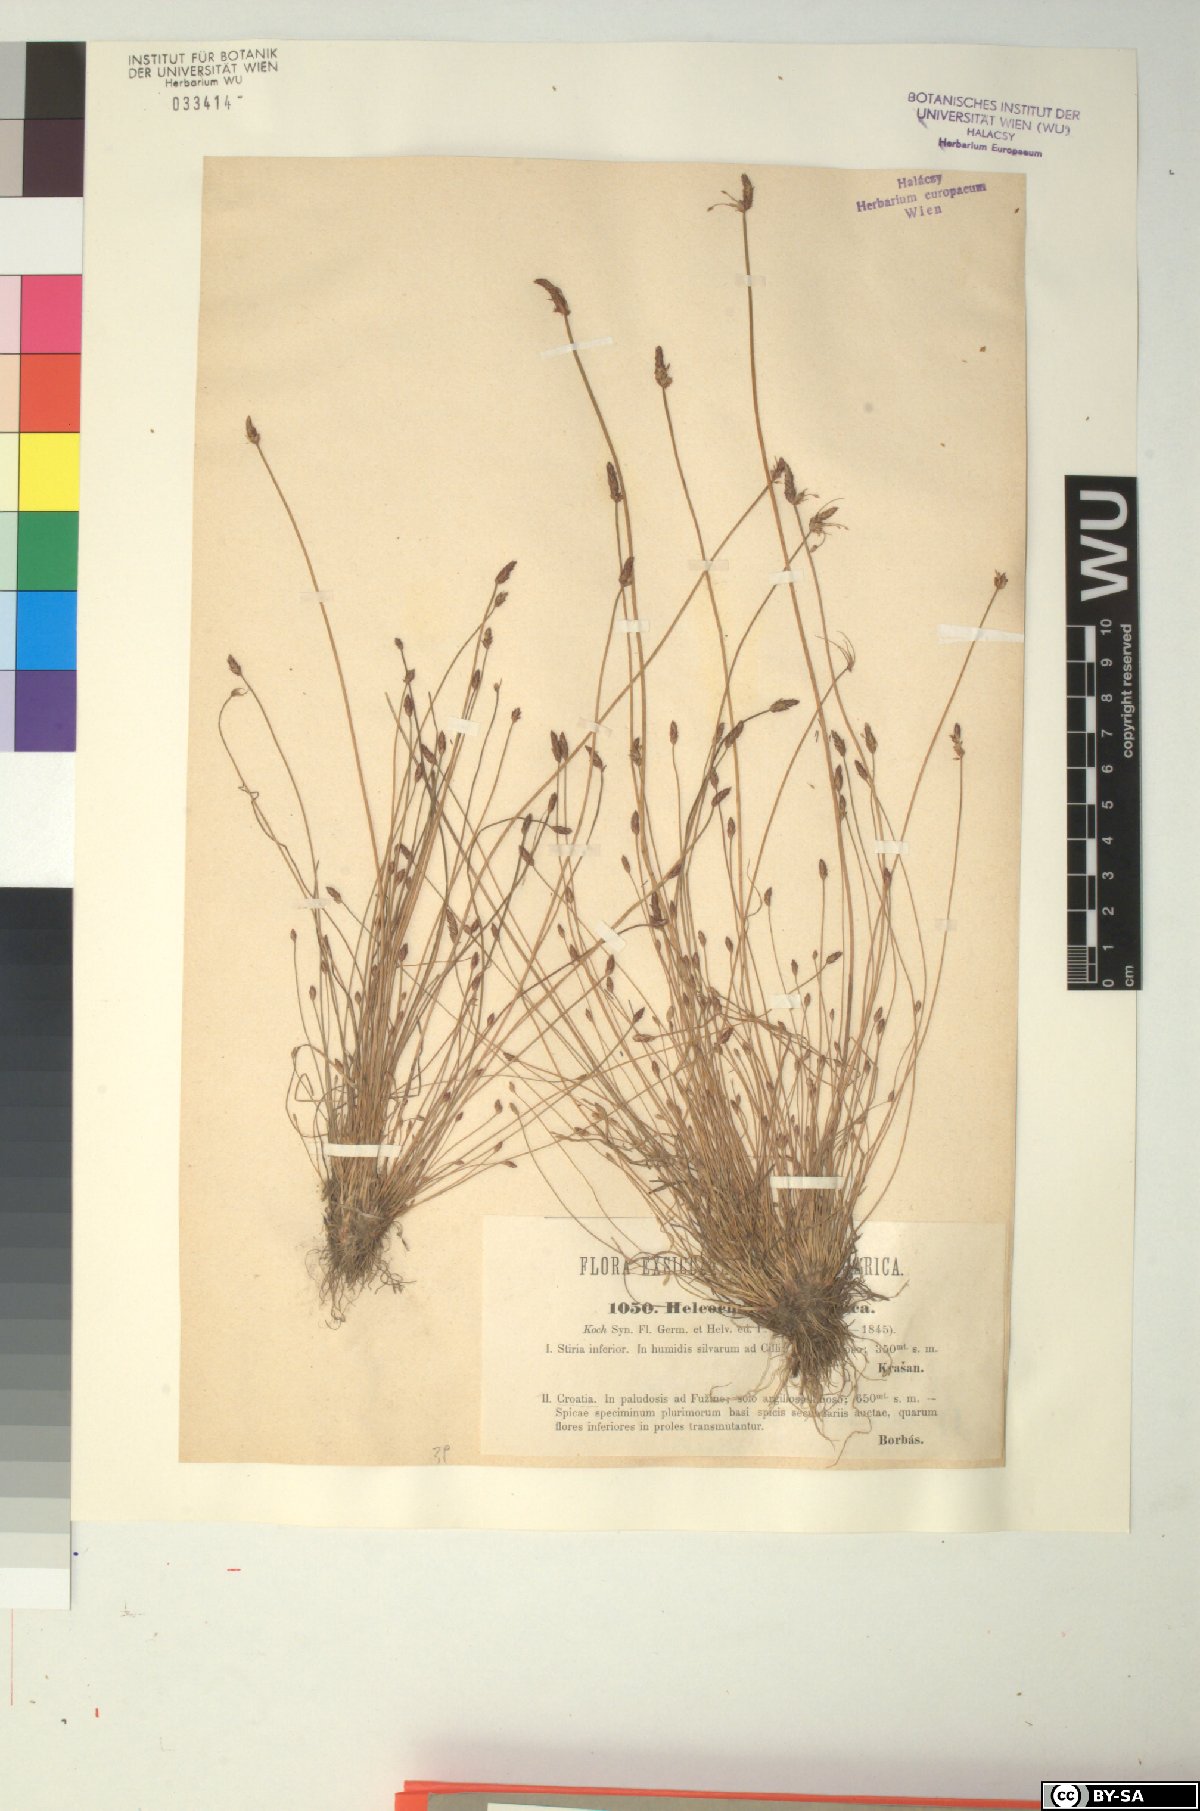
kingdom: Plantae
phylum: Tracheophyta
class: Liliopsida
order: Poales
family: Cyperaceae
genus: Eleocharis
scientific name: Eleocharis carniolica
